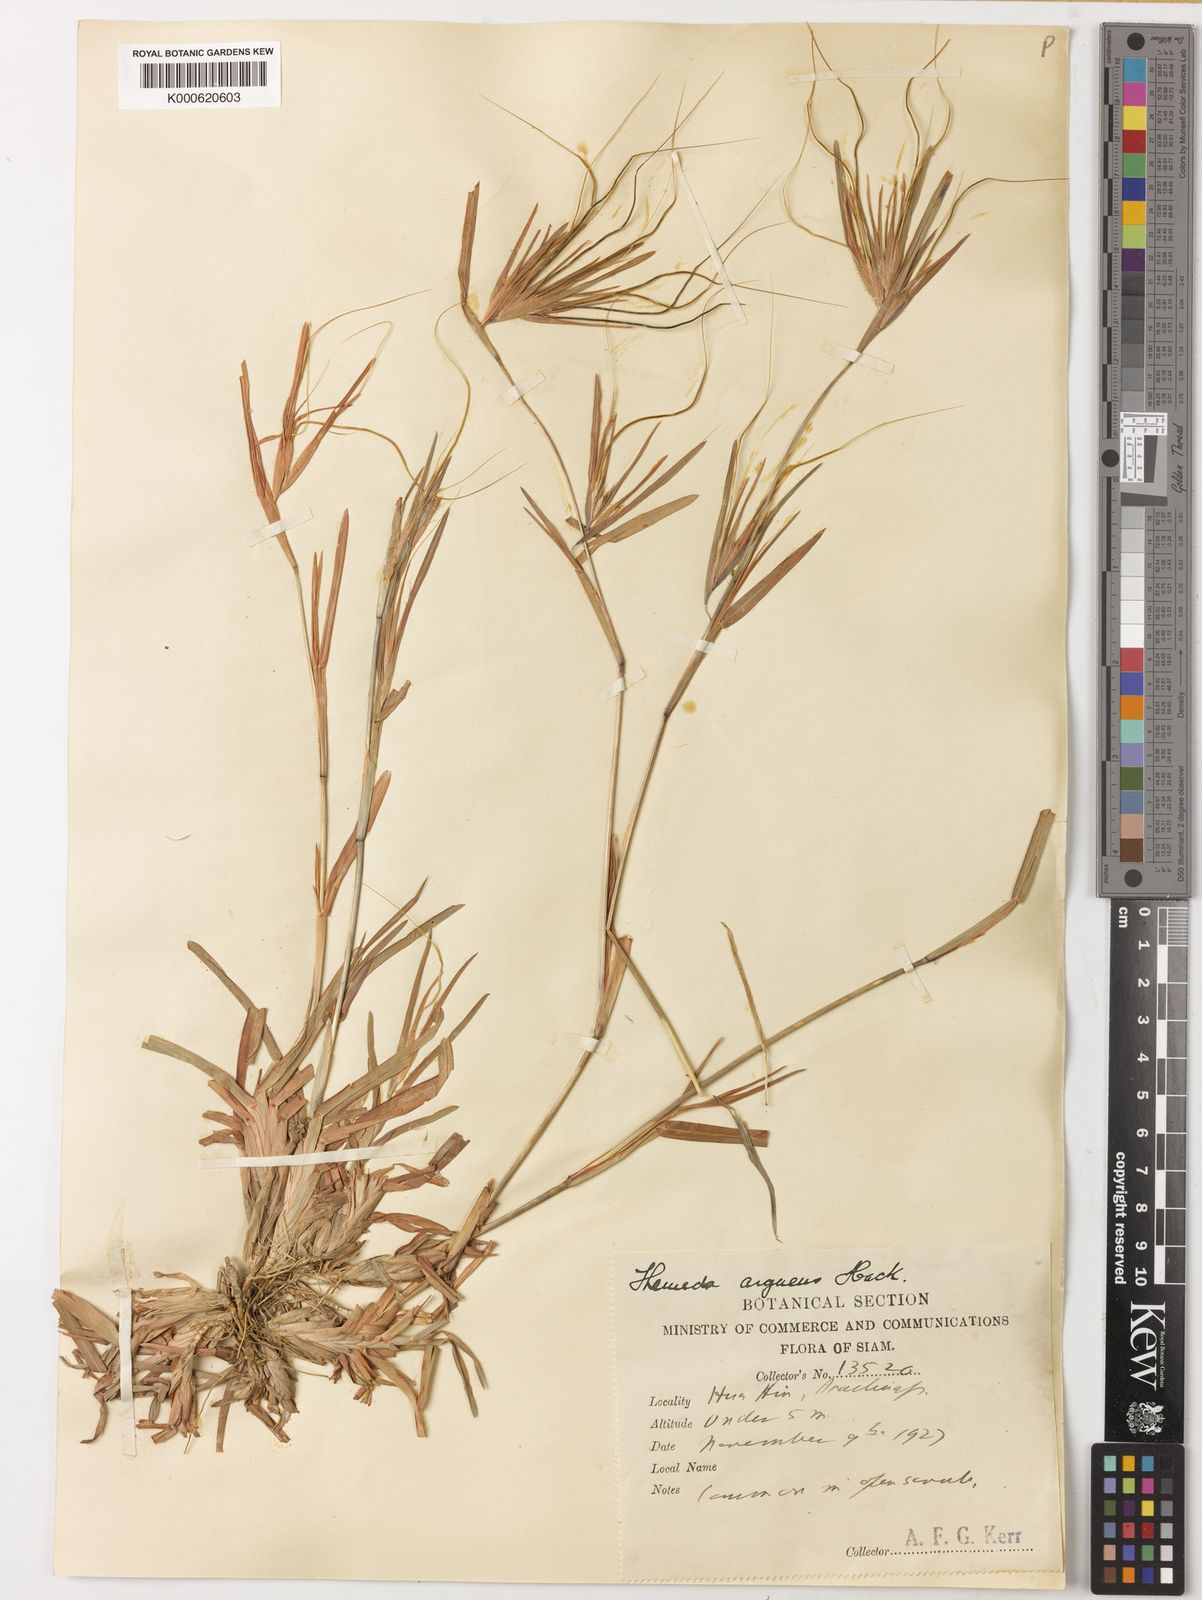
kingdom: Plantae
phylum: Tracheophyta
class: Liliopsida
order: Poales
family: Poaceae
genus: Themeda
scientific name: Themeda arguens
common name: Christmas grass
